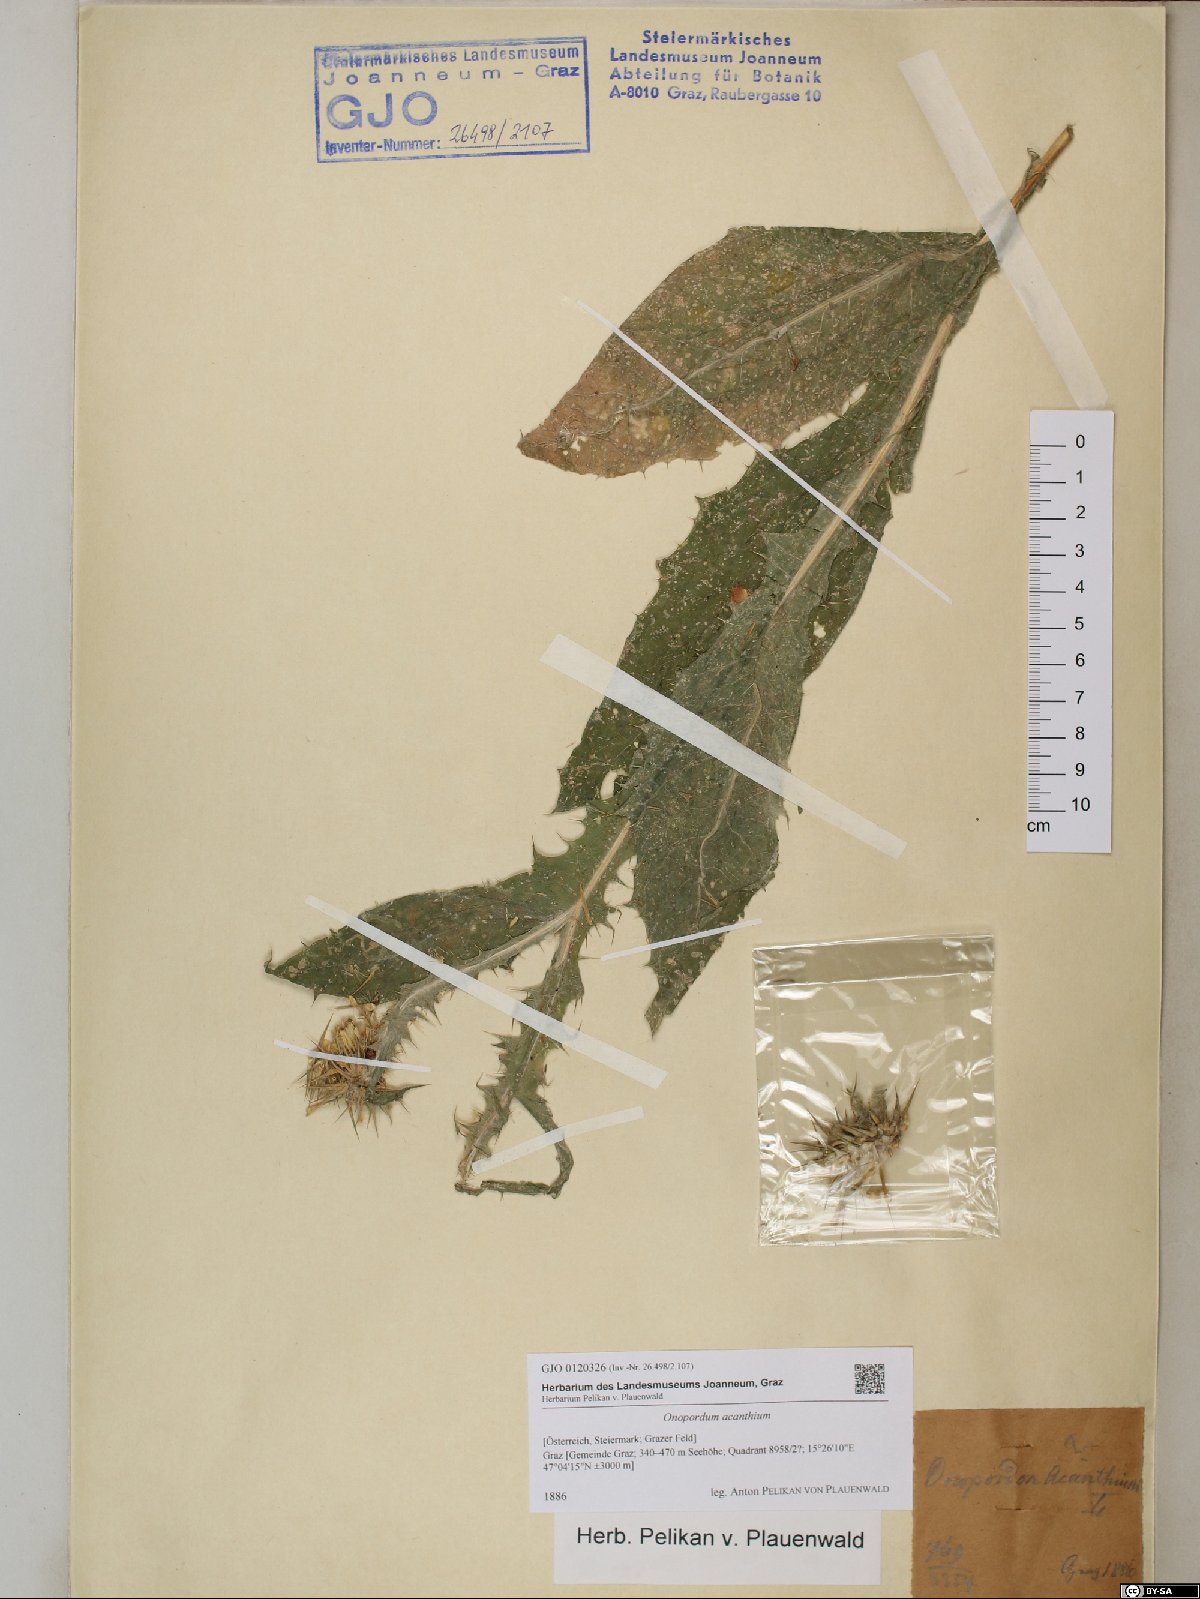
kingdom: Plantae
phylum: Tracheophyta
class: Magnoliopsida
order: Asterales
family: Asteraceae
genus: Onopordum
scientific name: Onopordum acanthium
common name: Scotch thistle
